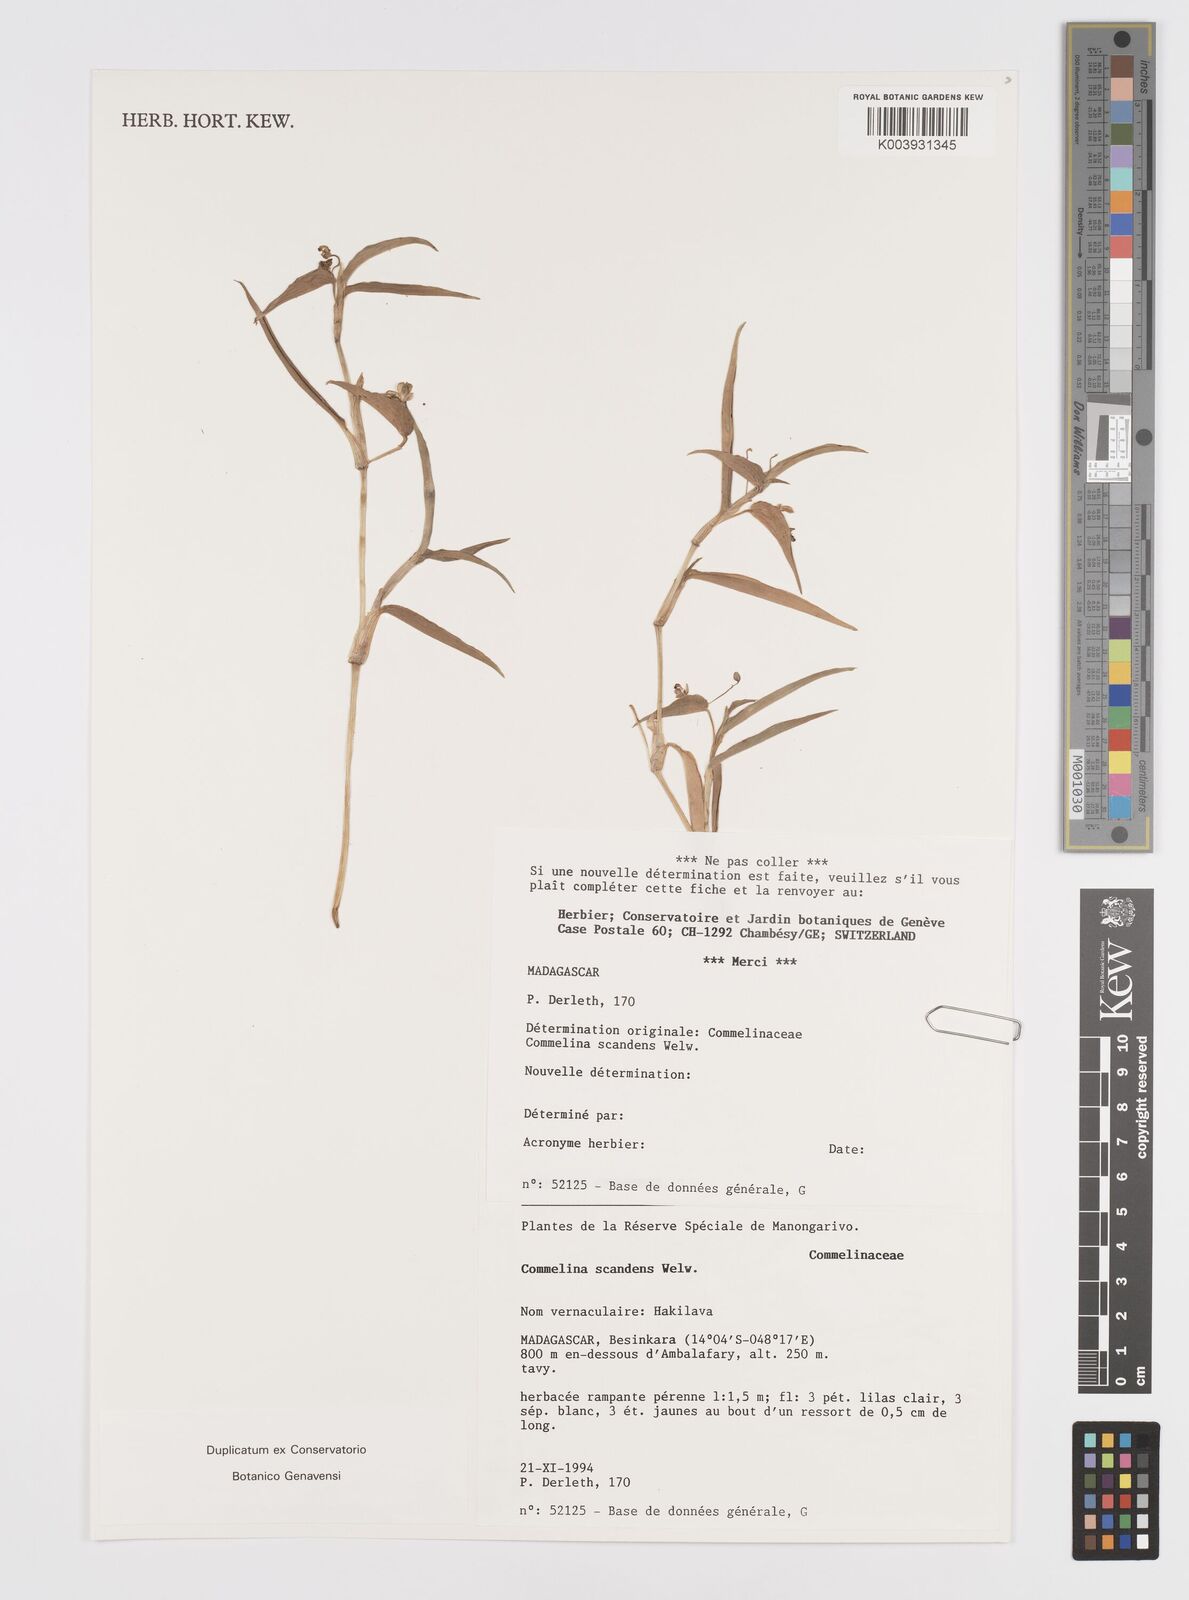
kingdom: Plantae
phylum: Tracheophyta
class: Liliopsida
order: Commelinales
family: Commelinaceae
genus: Commelina
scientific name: Commelina scandens
